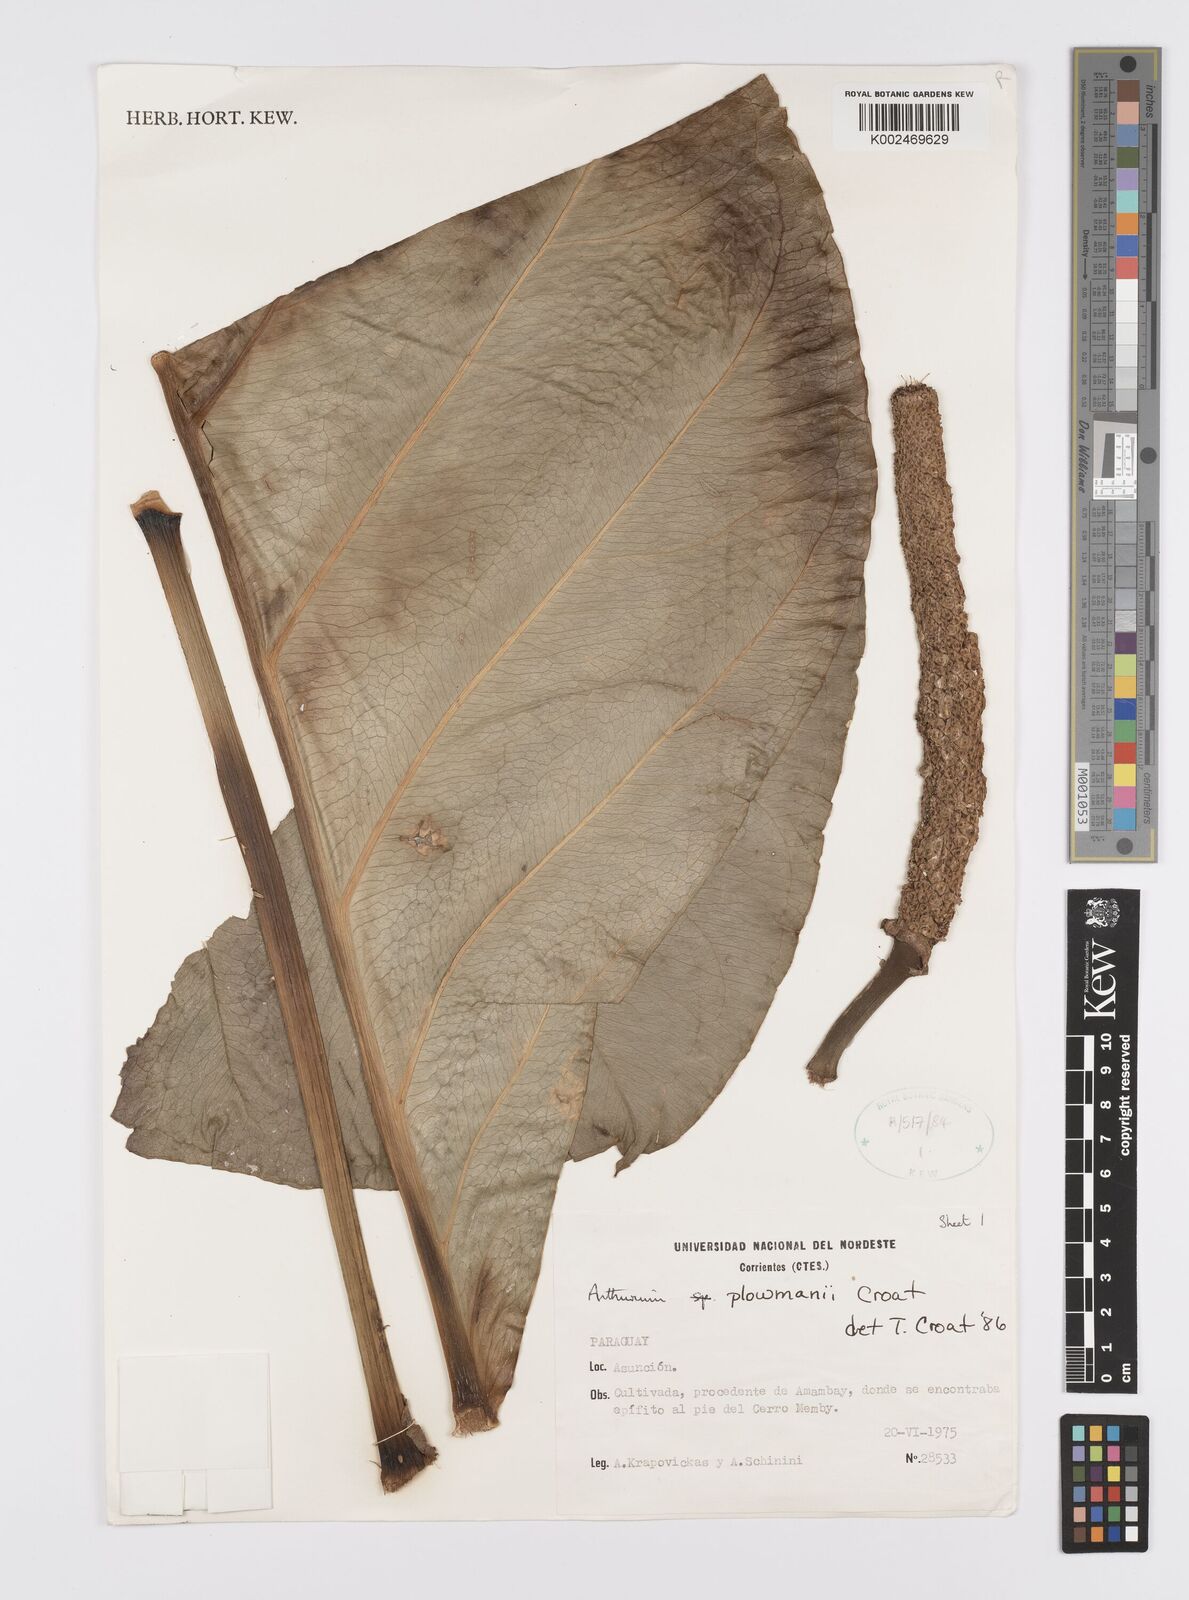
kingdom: Plantae
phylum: Tracheophyta
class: Liliopsida
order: Alismatales
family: Araceae
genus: Anthurium
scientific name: Anthurium plowmanii
